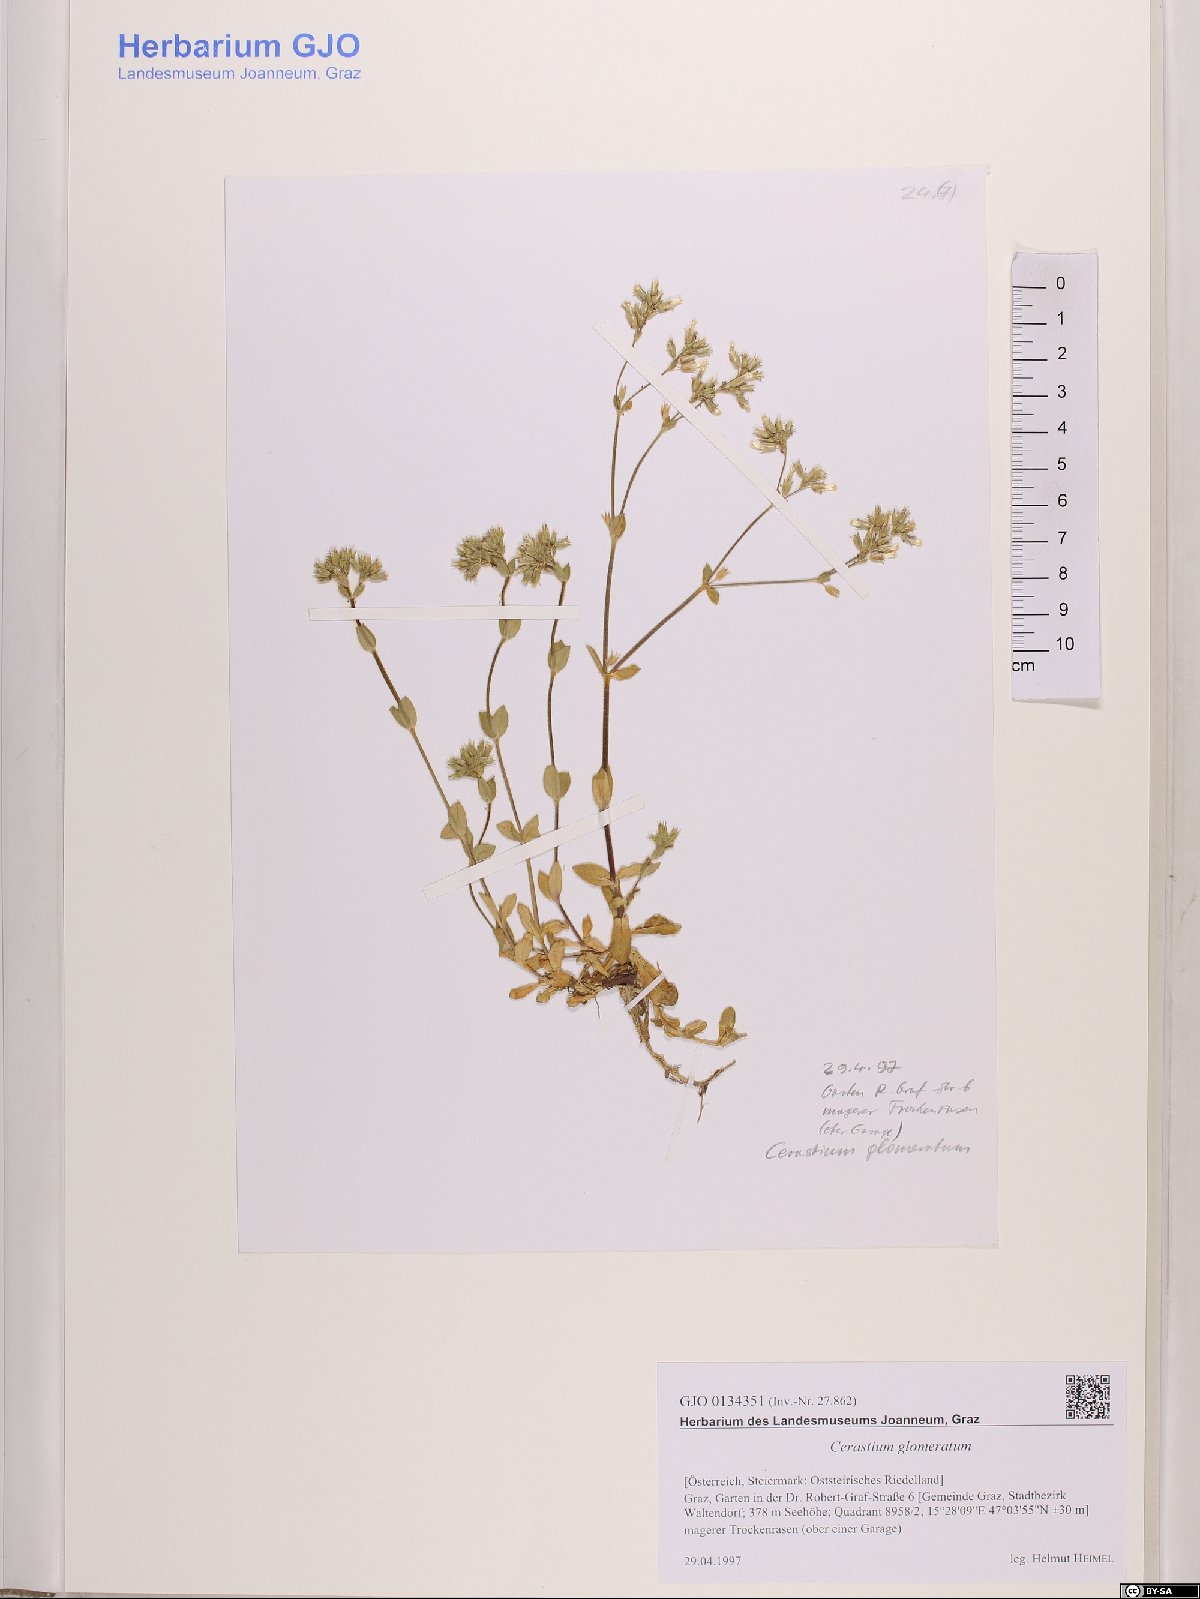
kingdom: Plantae
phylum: Tracheophyta
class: Magnoliopsida
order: Caryophyllales
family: Caryophyllaceae
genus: Cerastium
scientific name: Cerastium glomeratum
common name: Sticky chickweed
